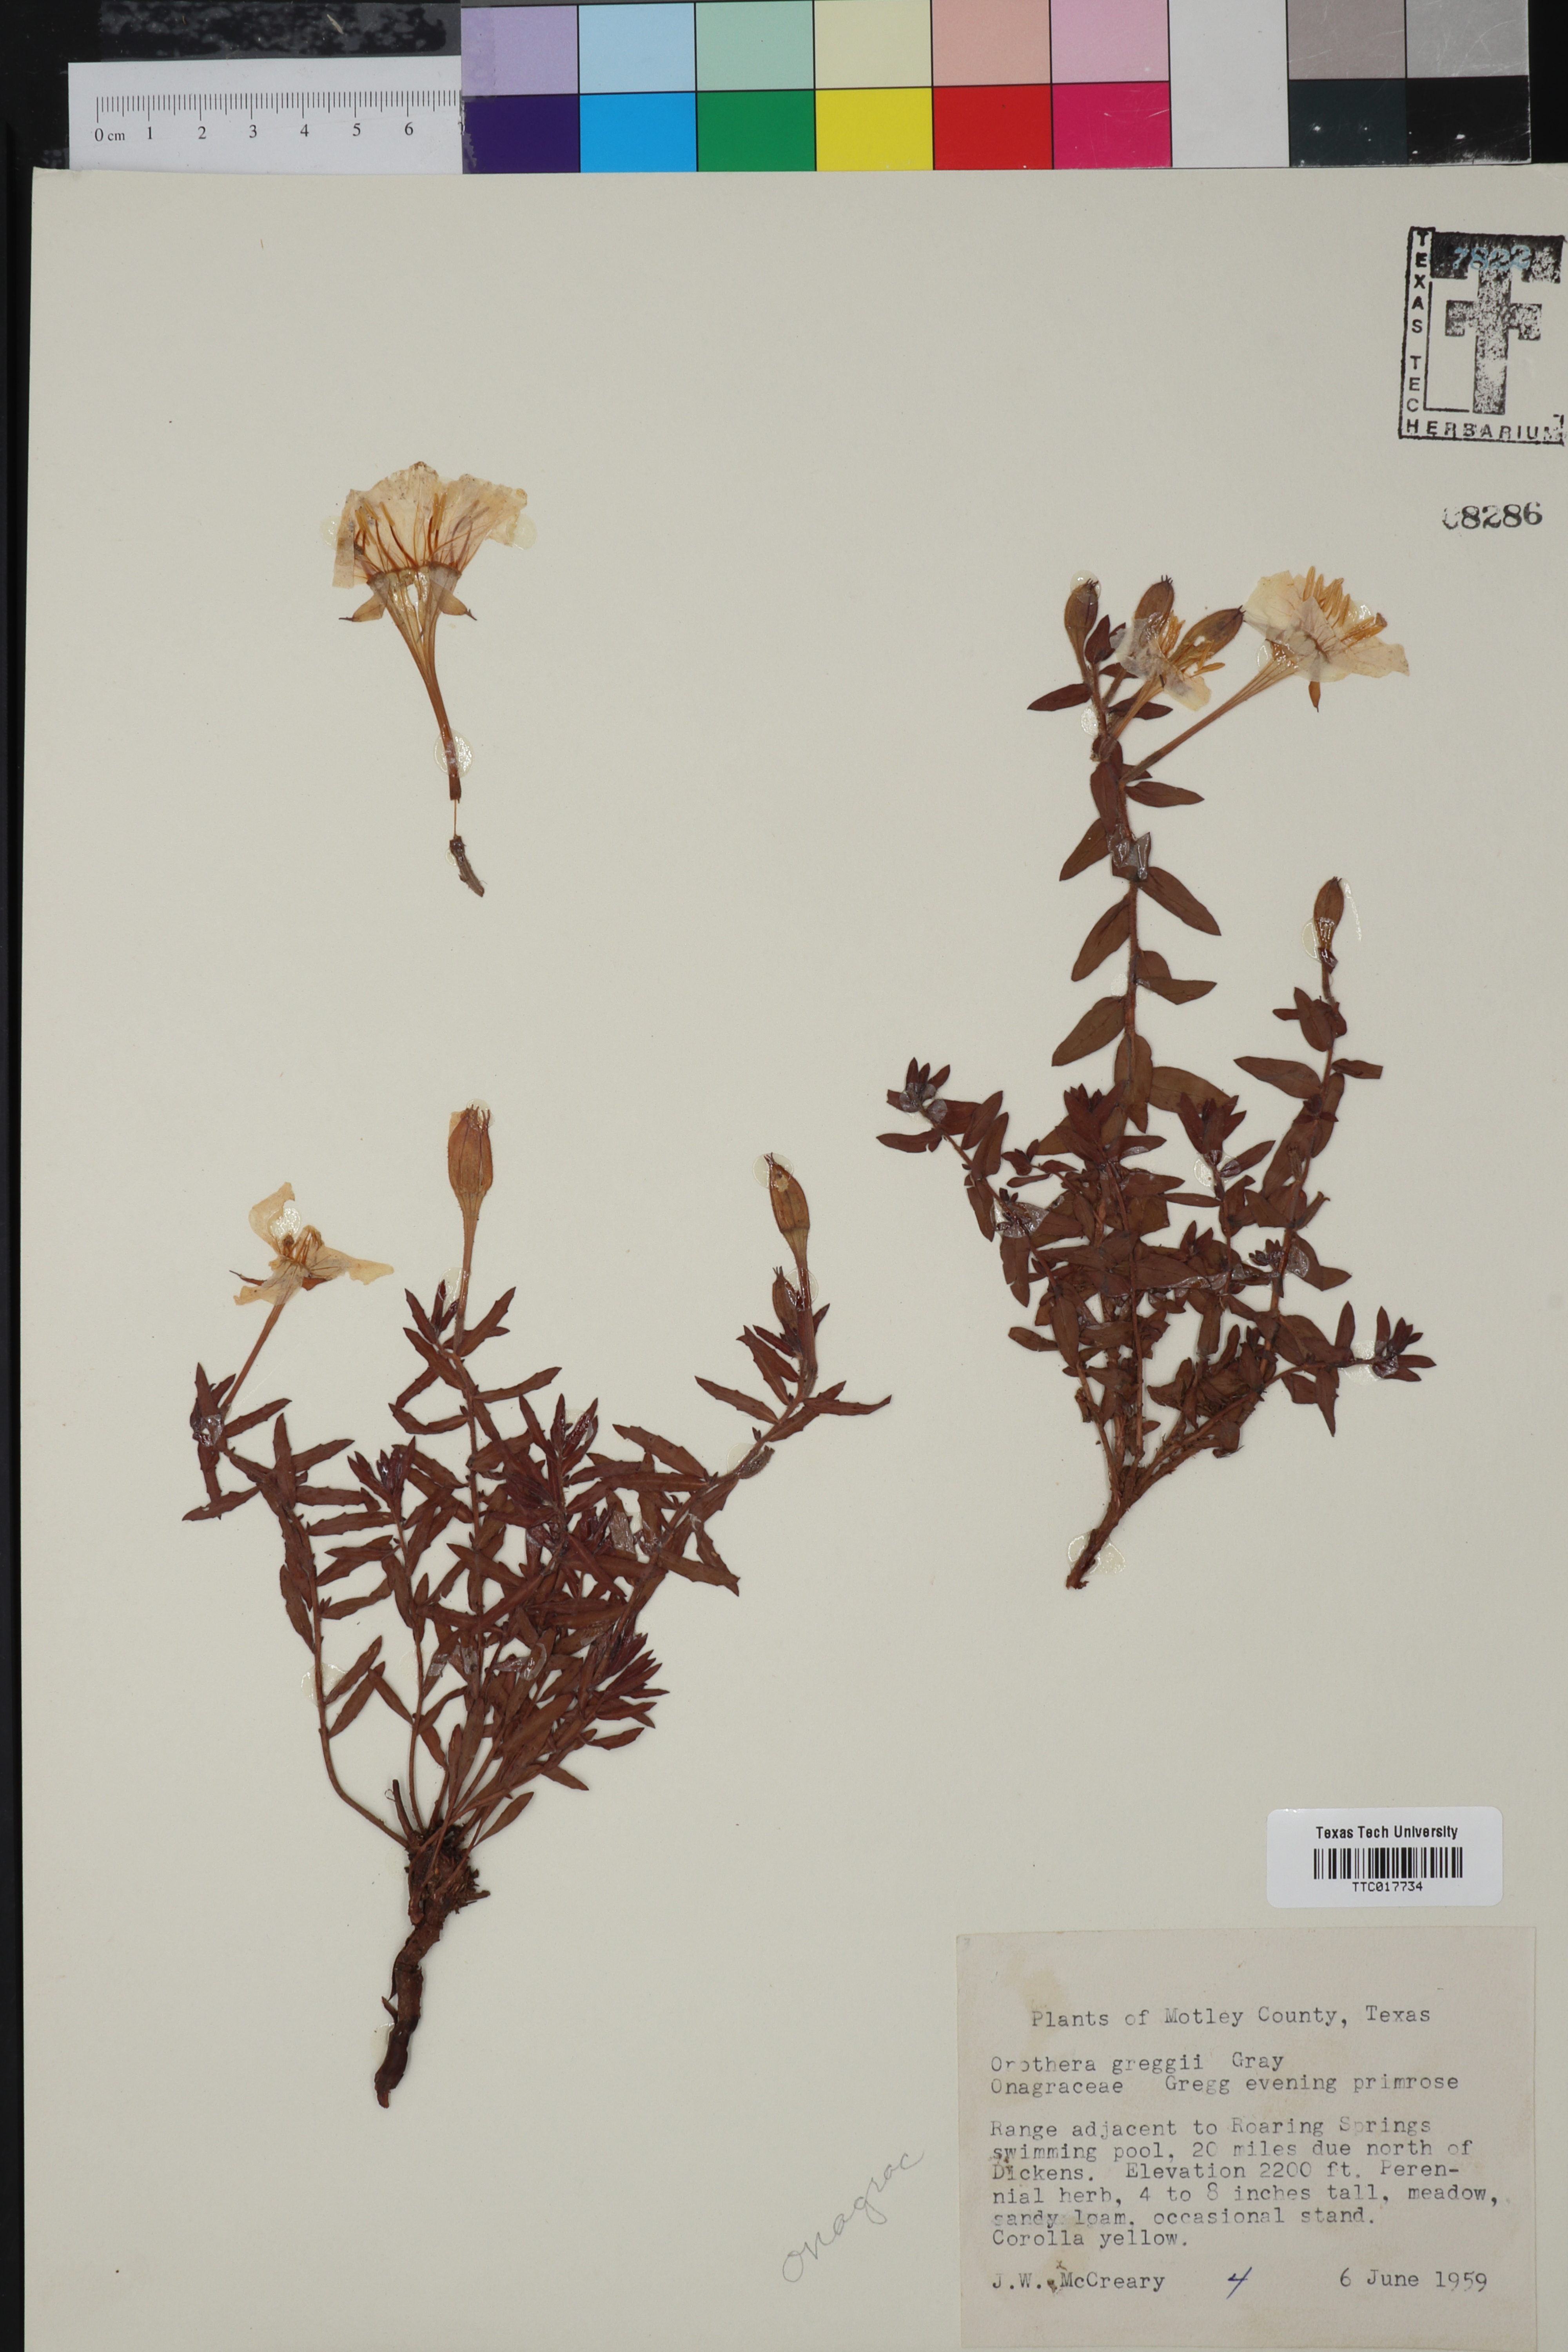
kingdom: Plantae
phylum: Tracheophyta
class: Magnoliopsida
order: Myrtales
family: Onagraceae
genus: Oenothera
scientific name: Oenothera hartwegii
